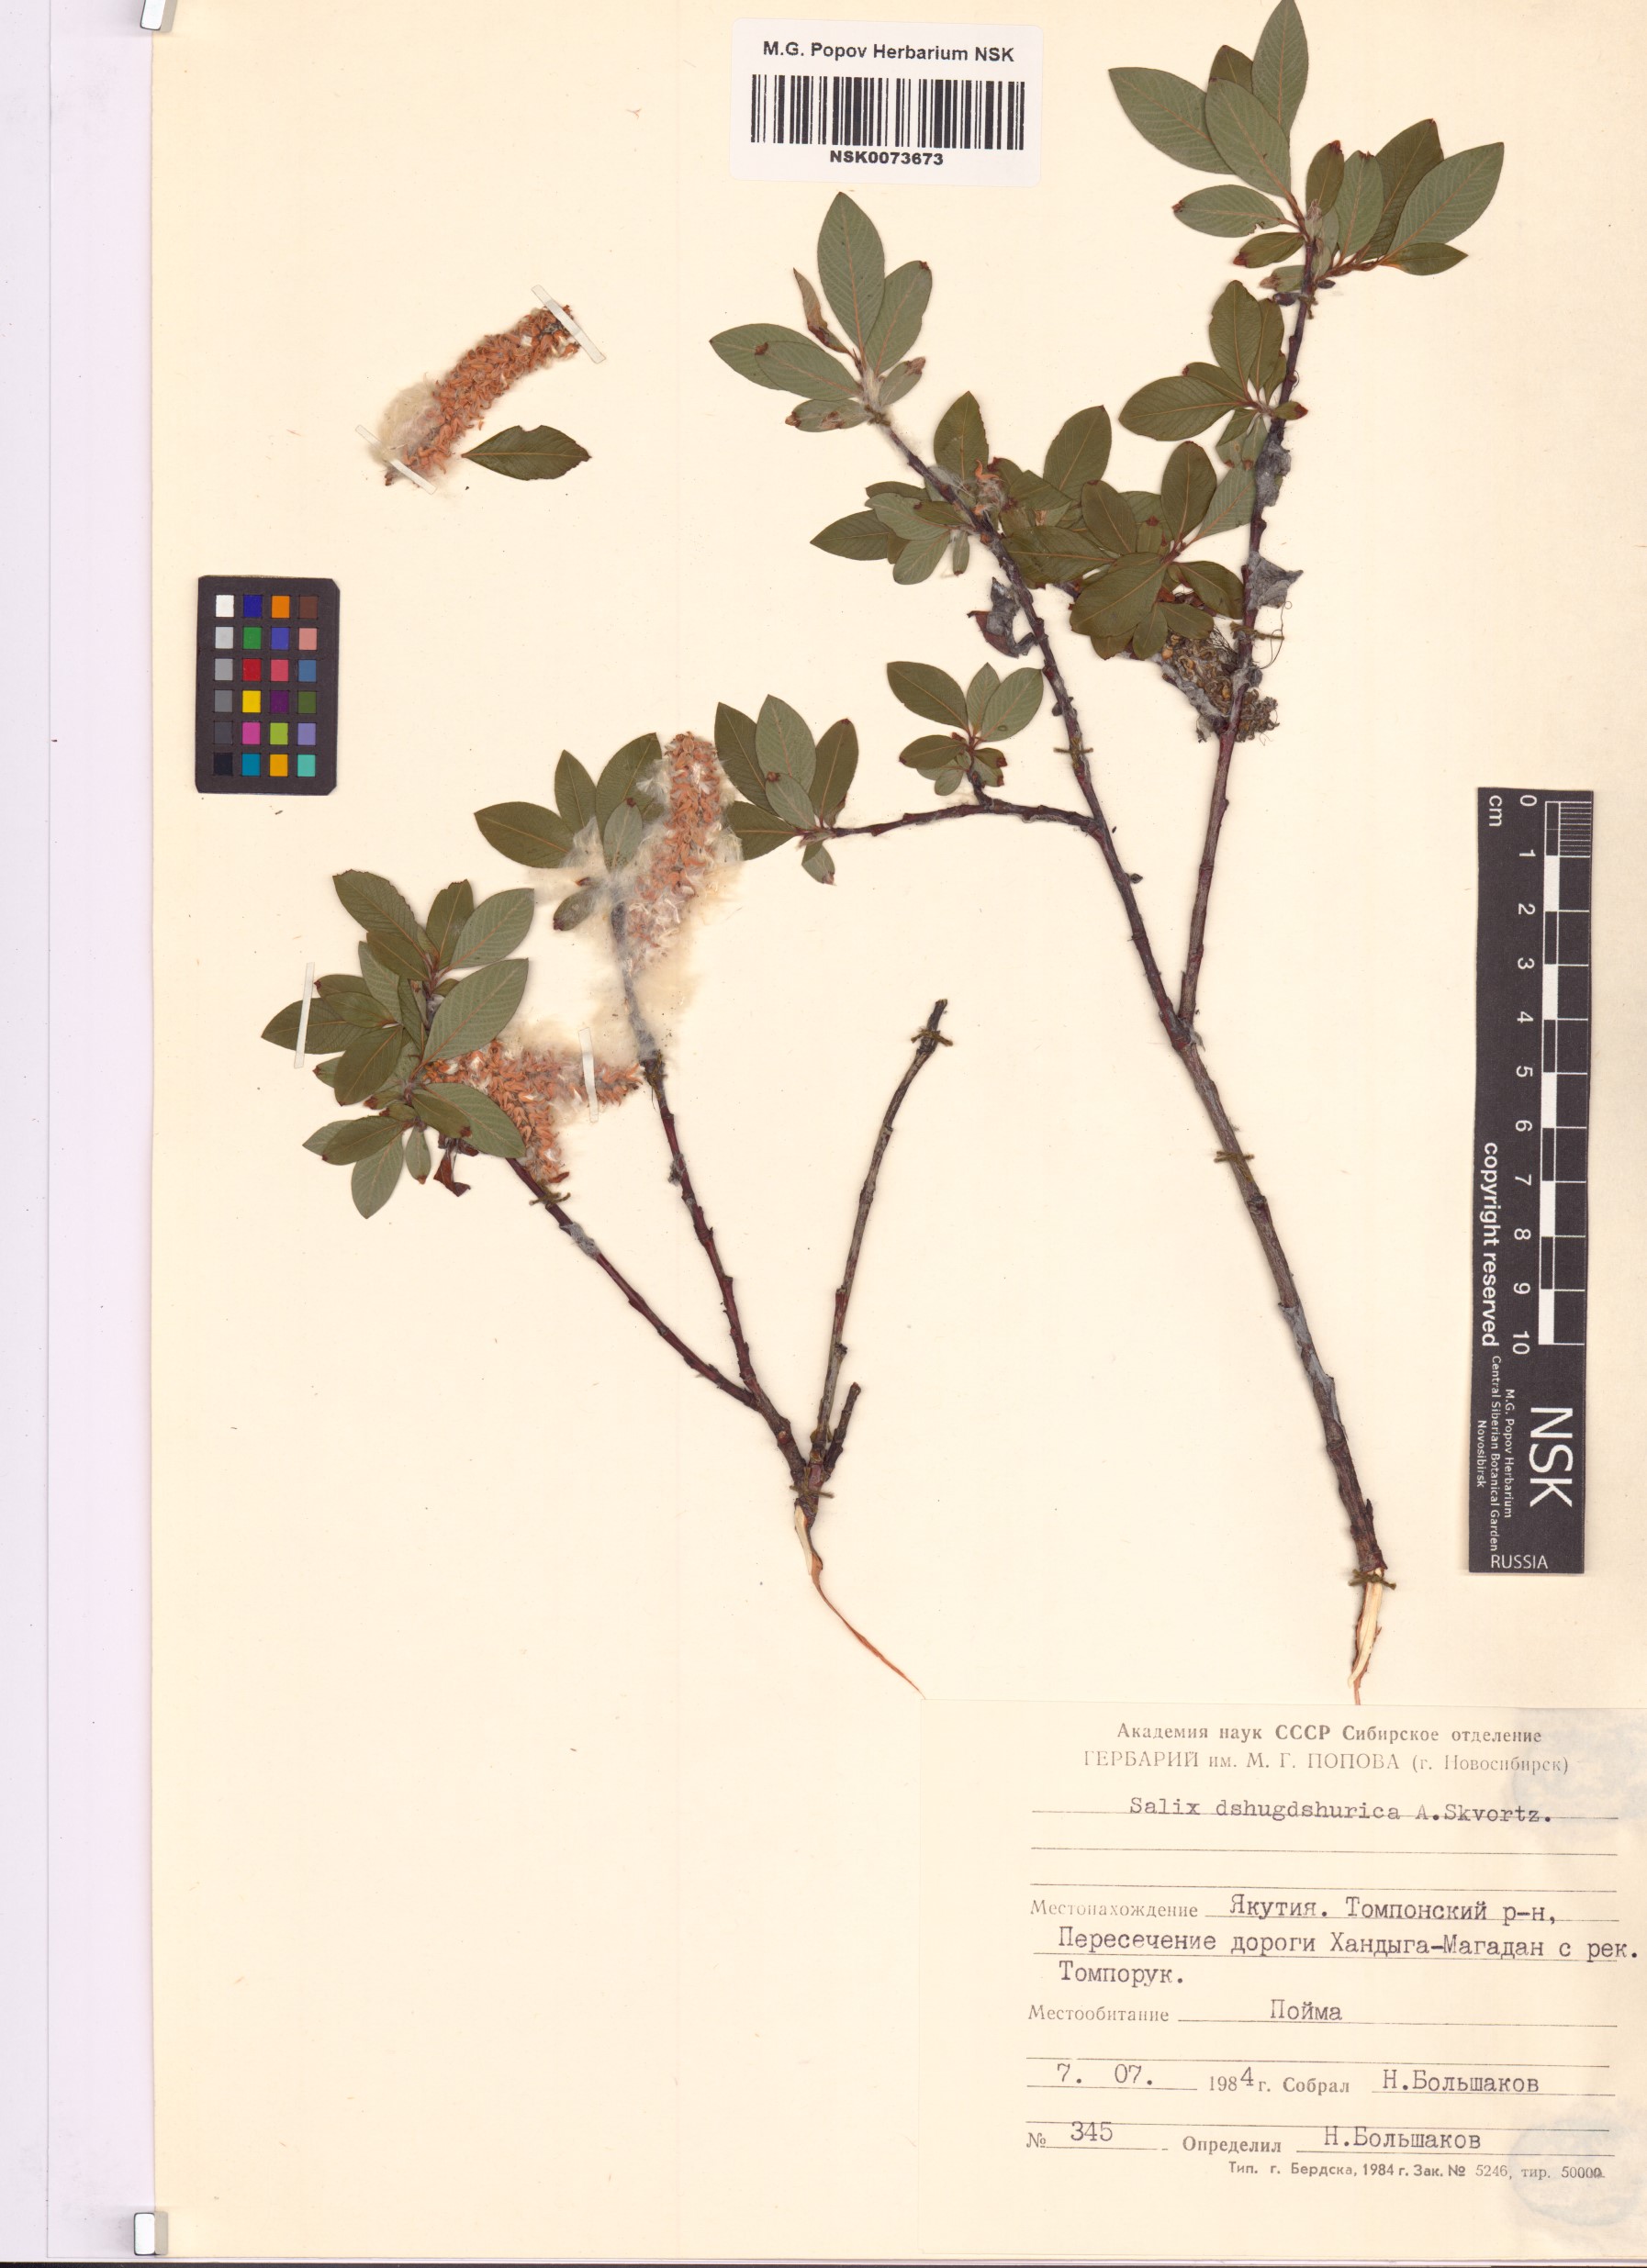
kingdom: Plantae
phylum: Tracheophyta
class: Magnoliopsida
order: Malpighiales
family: Salicaceae
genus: Salix
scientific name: Salix dshugdshurica
